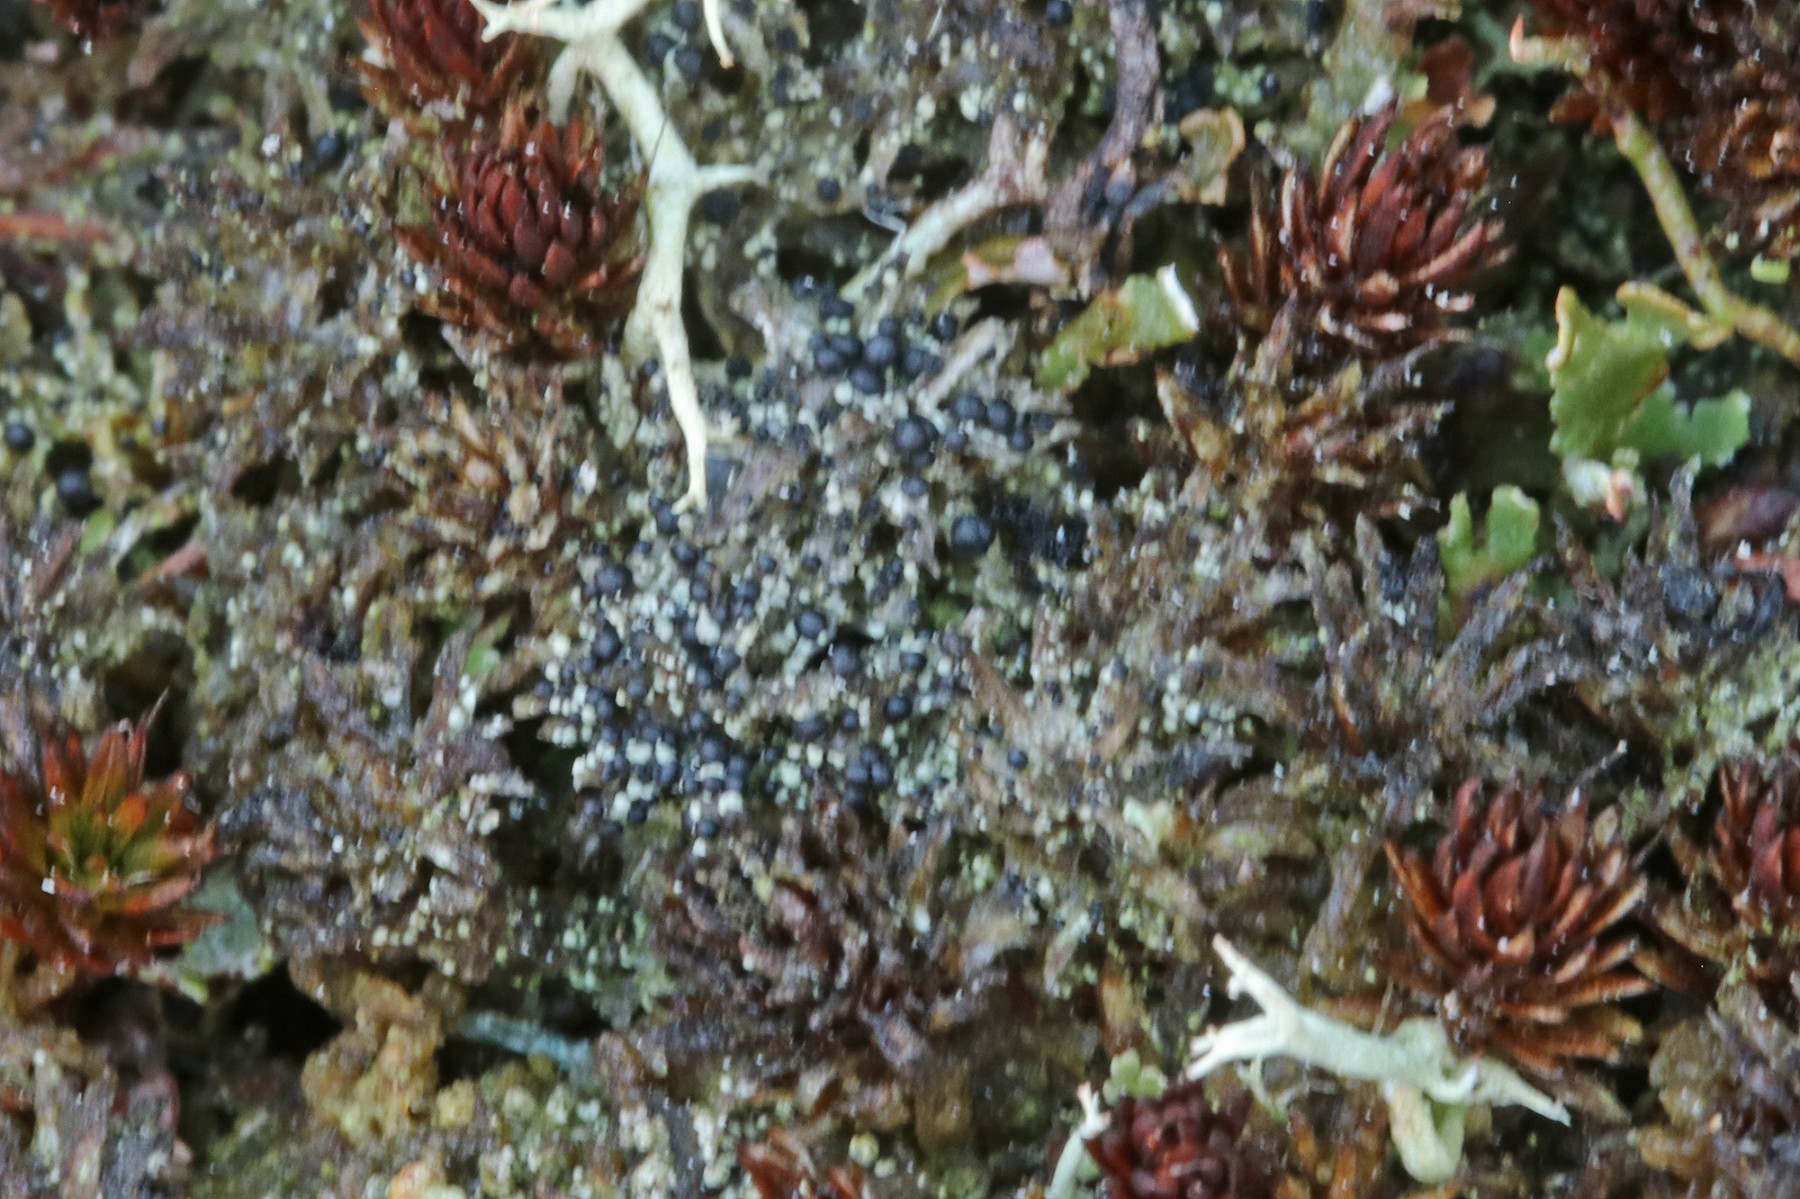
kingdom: Fungi
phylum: Ascomycota
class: Lecanoromycetes
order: Lecanorales
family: Byssolomataceae
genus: Micarea
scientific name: Micarea lignaria
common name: tørve-knaplav
